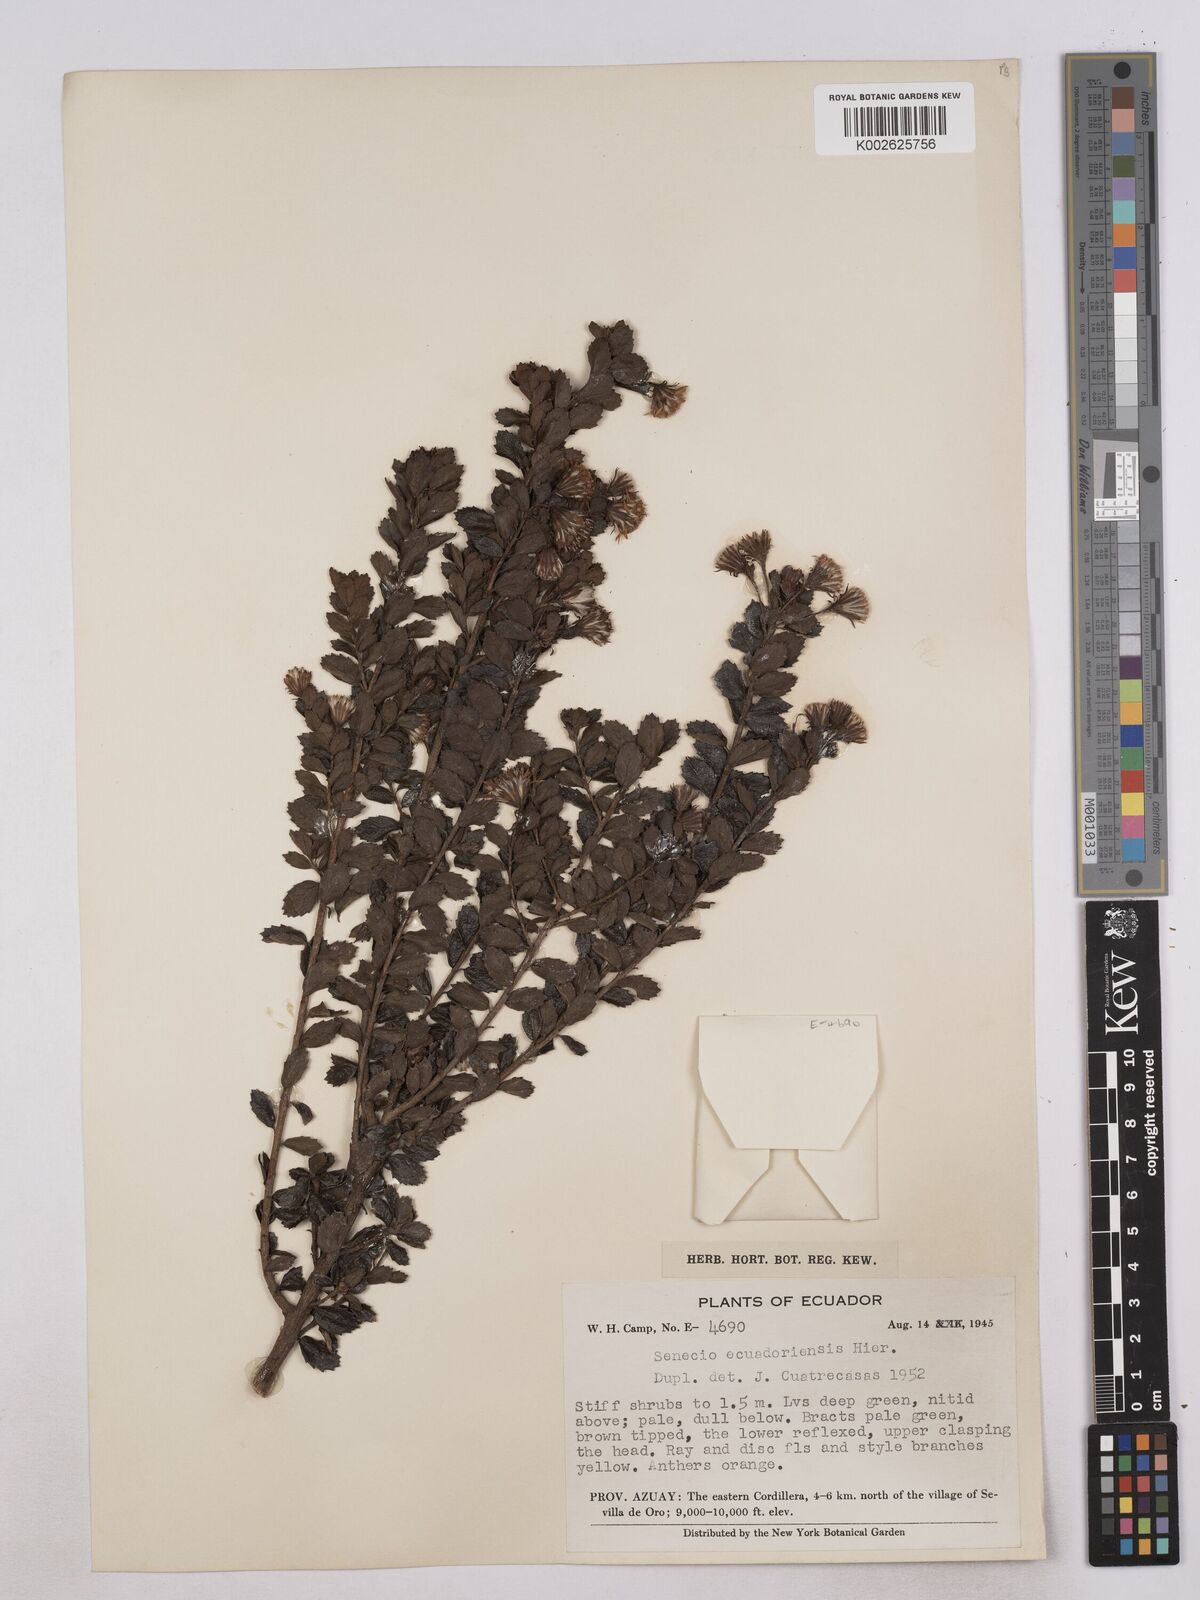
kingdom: Plantae
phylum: Tracheophyta
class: Magnoliopsida
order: Asterales
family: Asteraceae
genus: Monticalia
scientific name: Monticalia myrsinites
